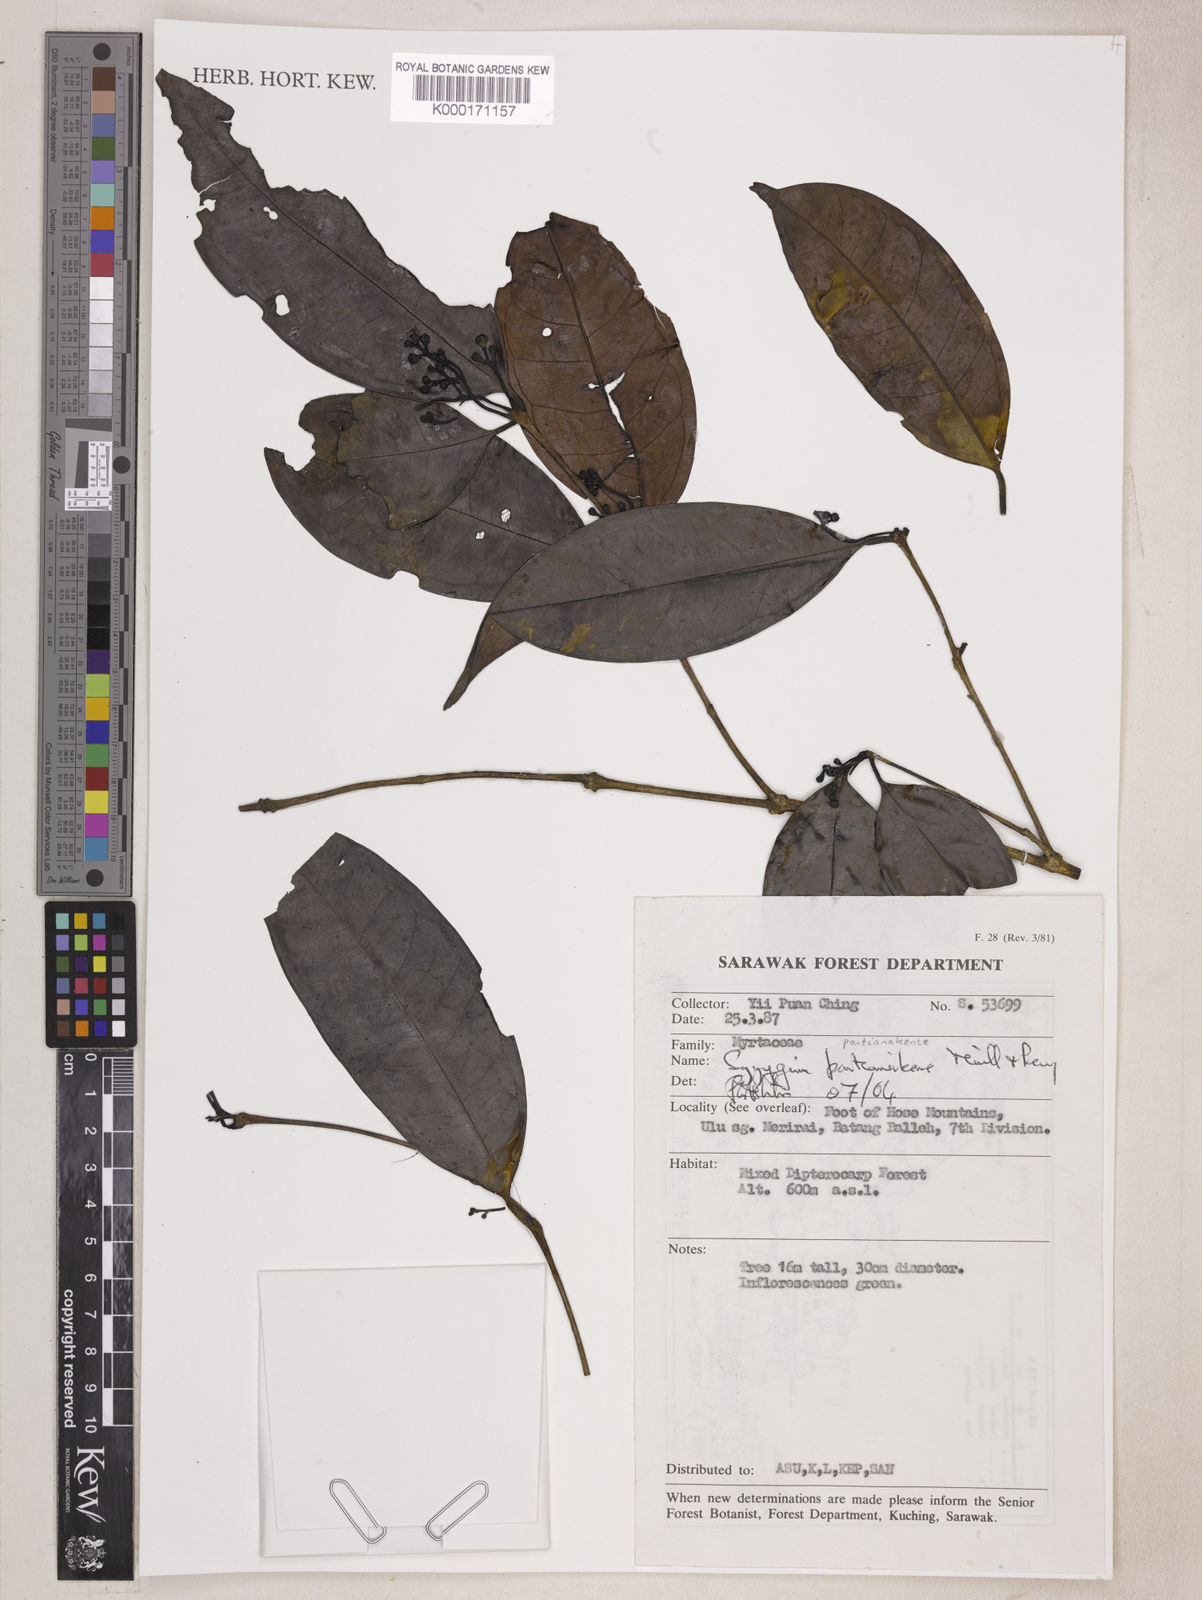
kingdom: Plantae
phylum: Tracheophyta
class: Magnoliopsida
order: Myrtales
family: Myrtaceae
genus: Syzygium
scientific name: Syzygium pontianakense
